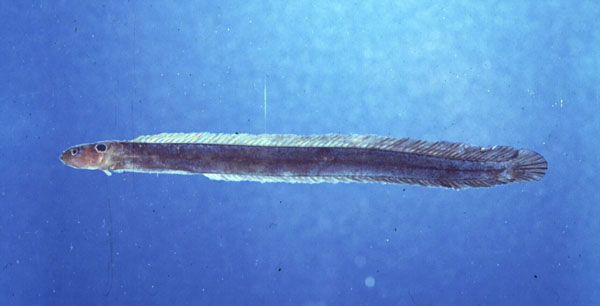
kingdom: Animalia
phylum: Chordata
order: Perciformes
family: Pseudochromidae
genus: Halidesmus
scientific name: Halidesmus scapularis
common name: Snakelet
